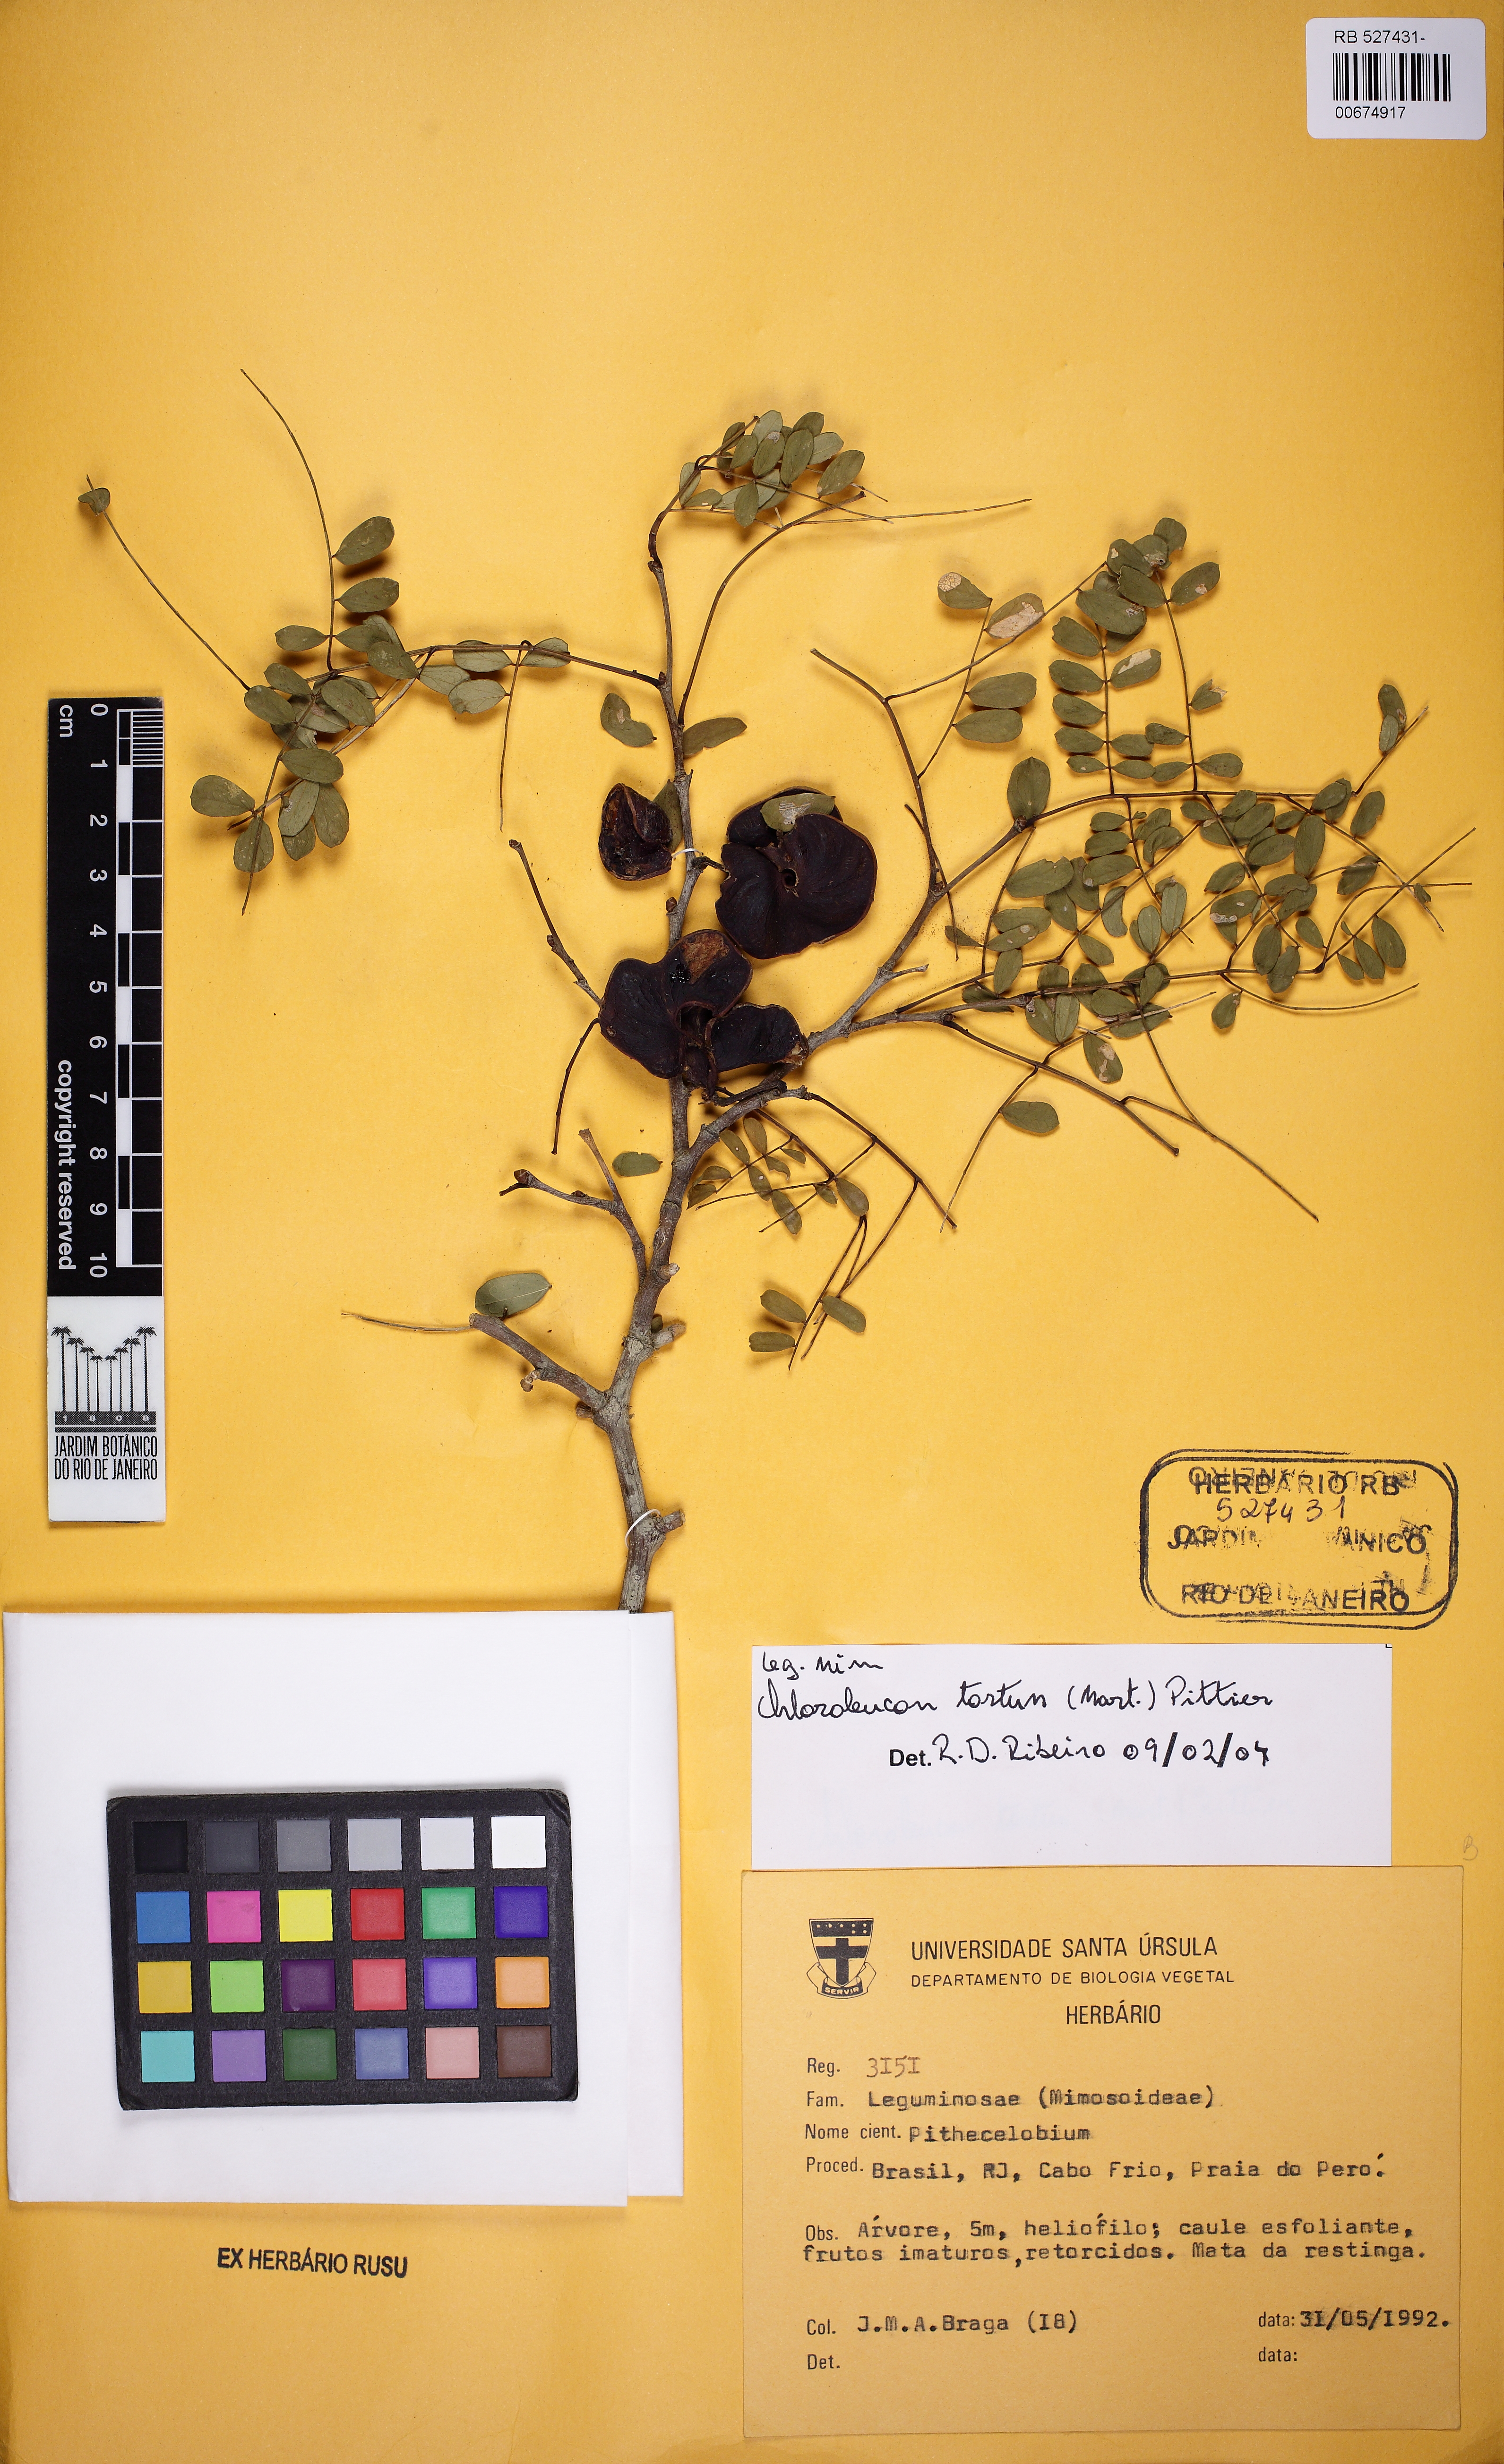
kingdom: Plantae
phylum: Tracheophyta
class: Magnoliopsida
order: Fabales
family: Fabaceae
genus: Chloroleucon
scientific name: Chloroleucon tortum
